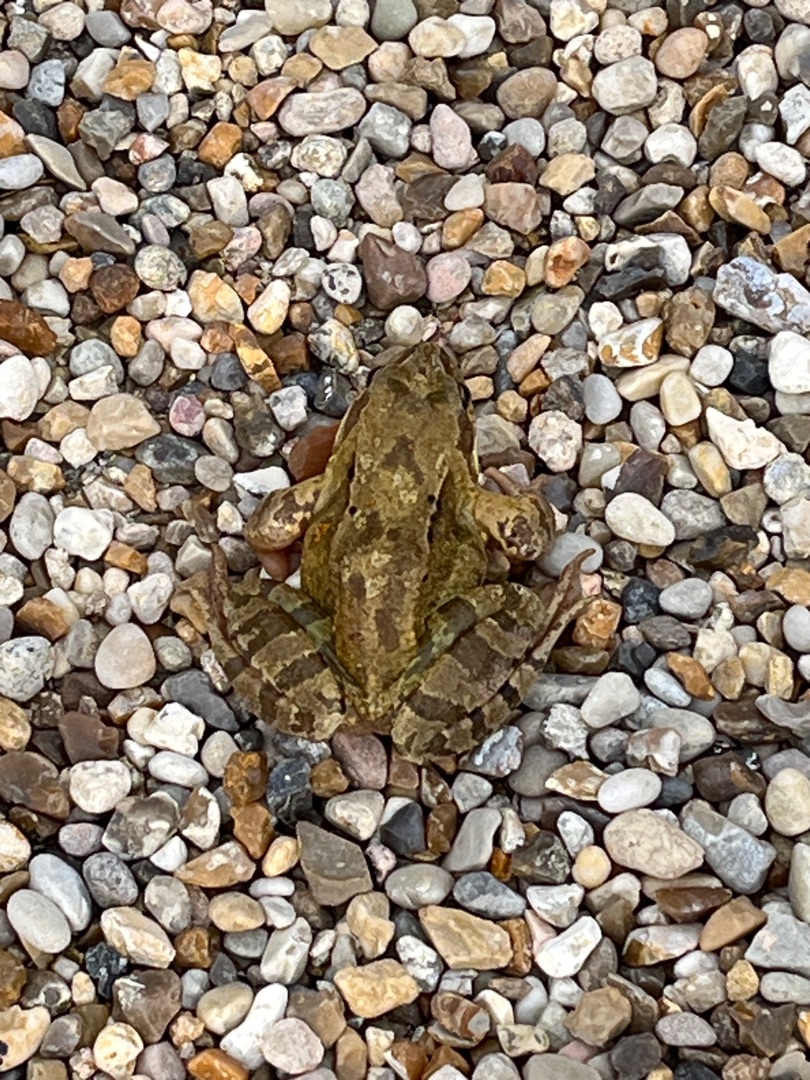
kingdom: Animalia
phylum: Chordata
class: Amphibia
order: Anura
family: Ranidae
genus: Rana
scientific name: Rana temporaria
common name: Butsnudet frø
